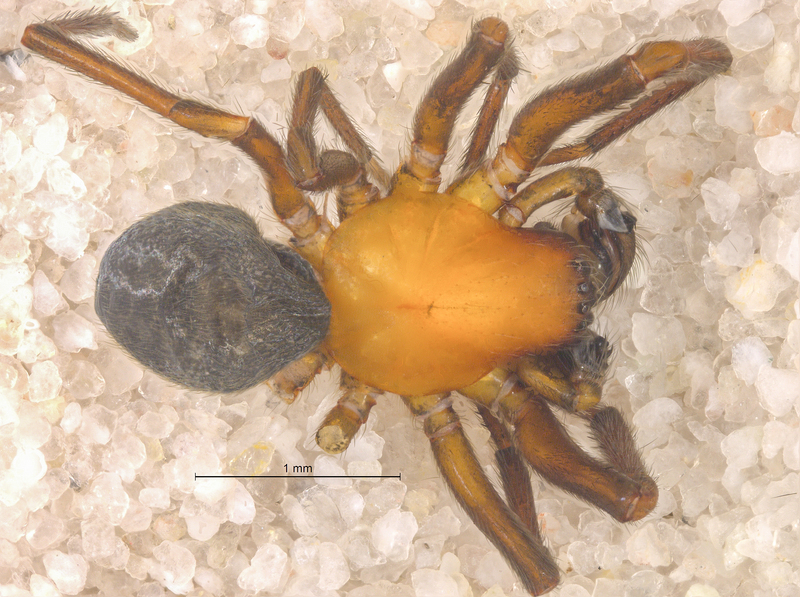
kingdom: Animalia
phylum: Arthropoda
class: Arachnida
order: Araneae
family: Titanoecidae
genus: Titanoeca
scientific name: Titanoeca spominima
